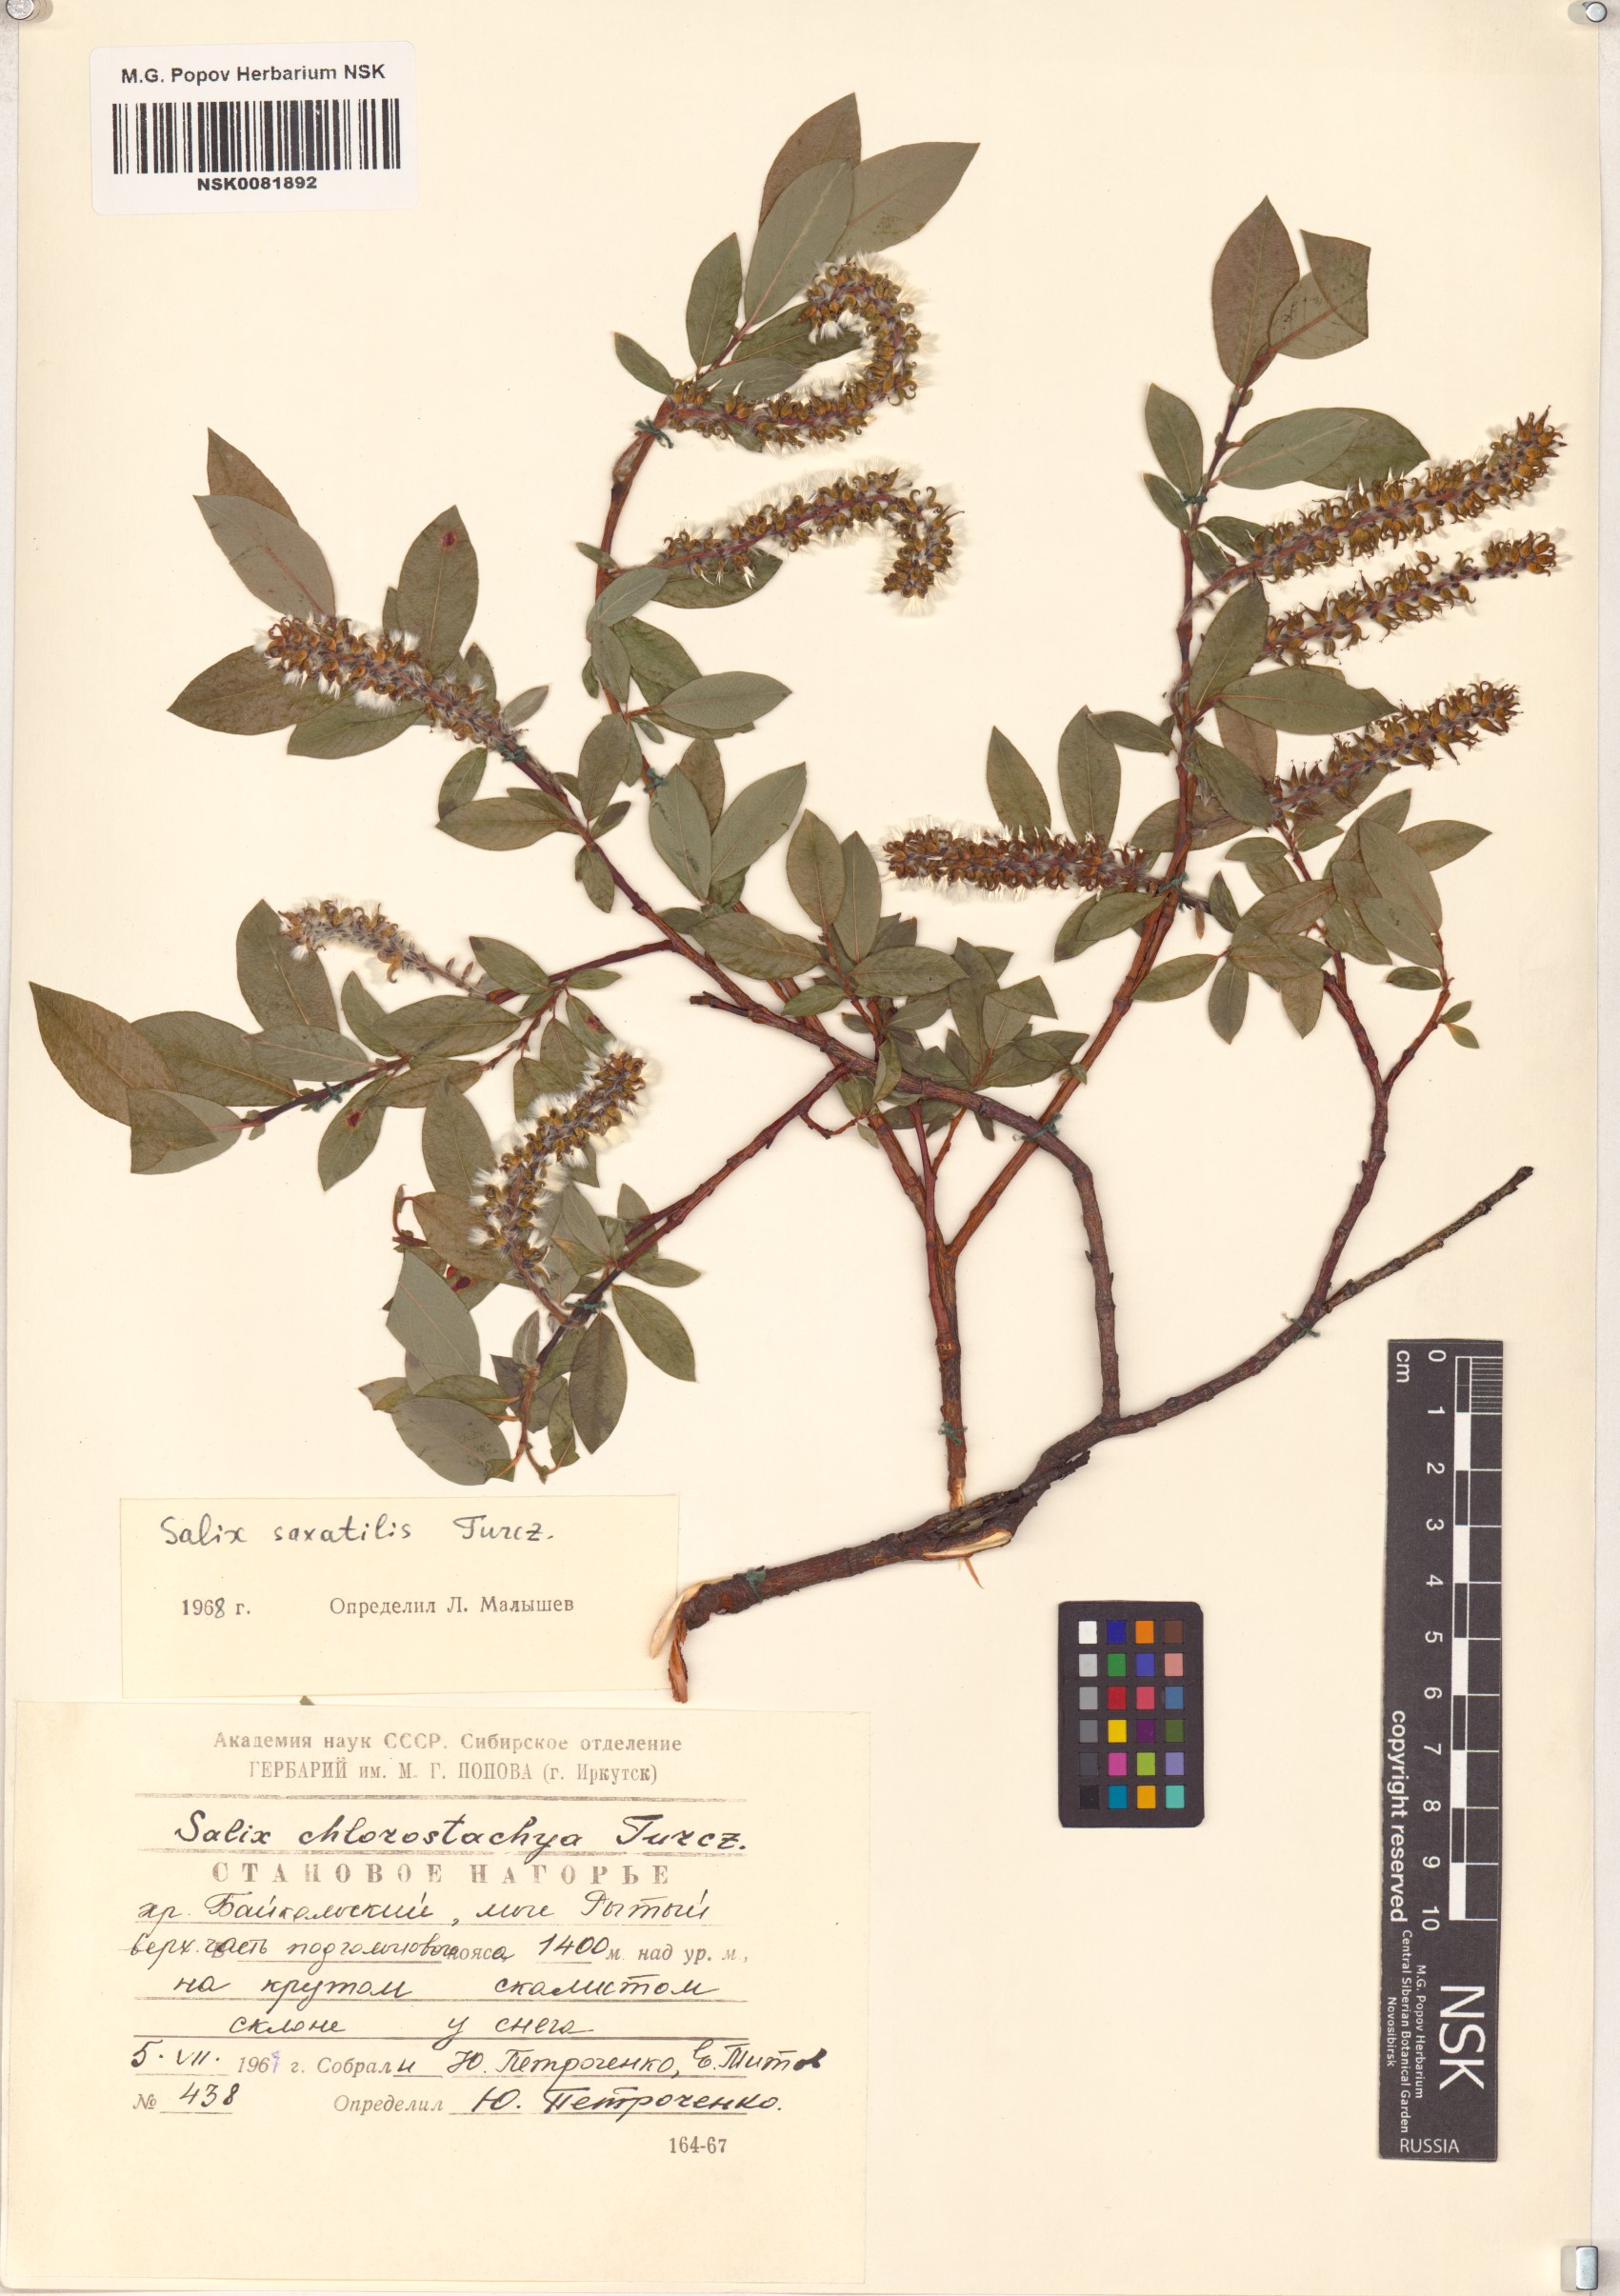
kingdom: Plantae
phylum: Tracheophyta
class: Magnoliopsida
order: Malpighiales
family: Salicaceae
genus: Salix
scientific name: Salix saxatilis
